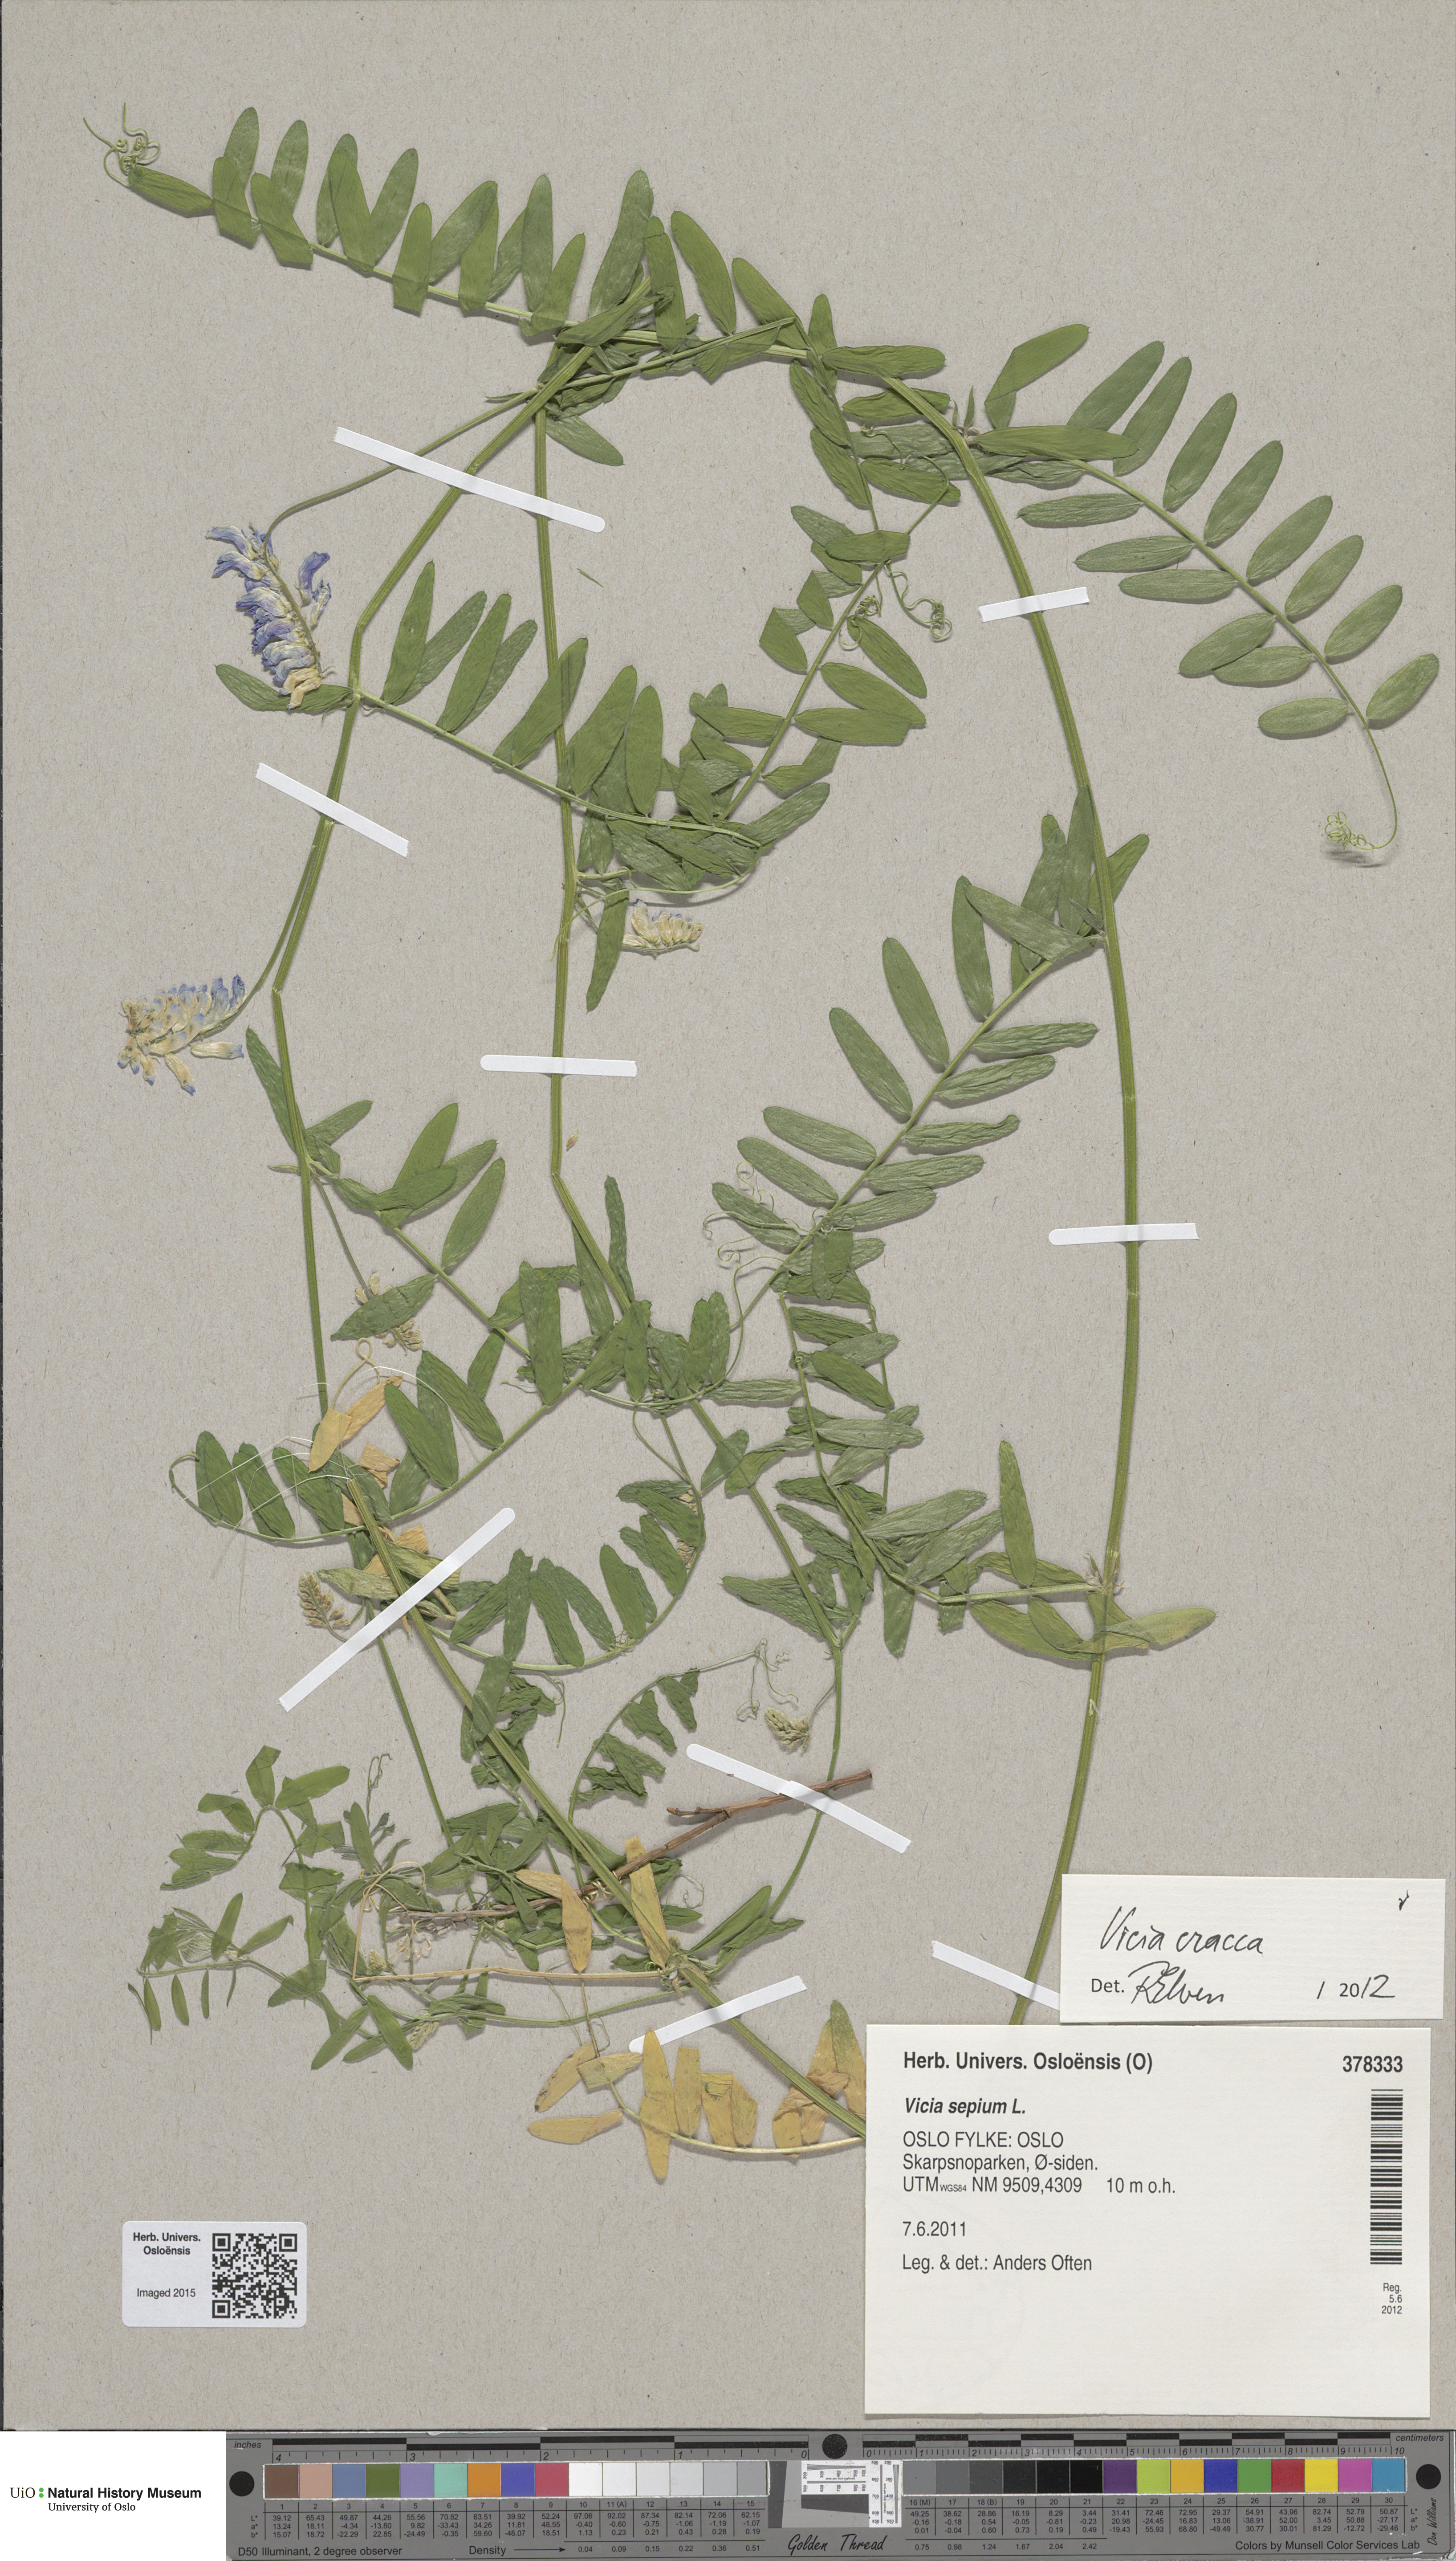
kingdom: Plantae
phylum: Tracheophyta
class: Magnoliopsida
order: Fabales
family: Fabaceae
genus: Vicia
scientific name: Vicia cracca
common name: Bird vetch
